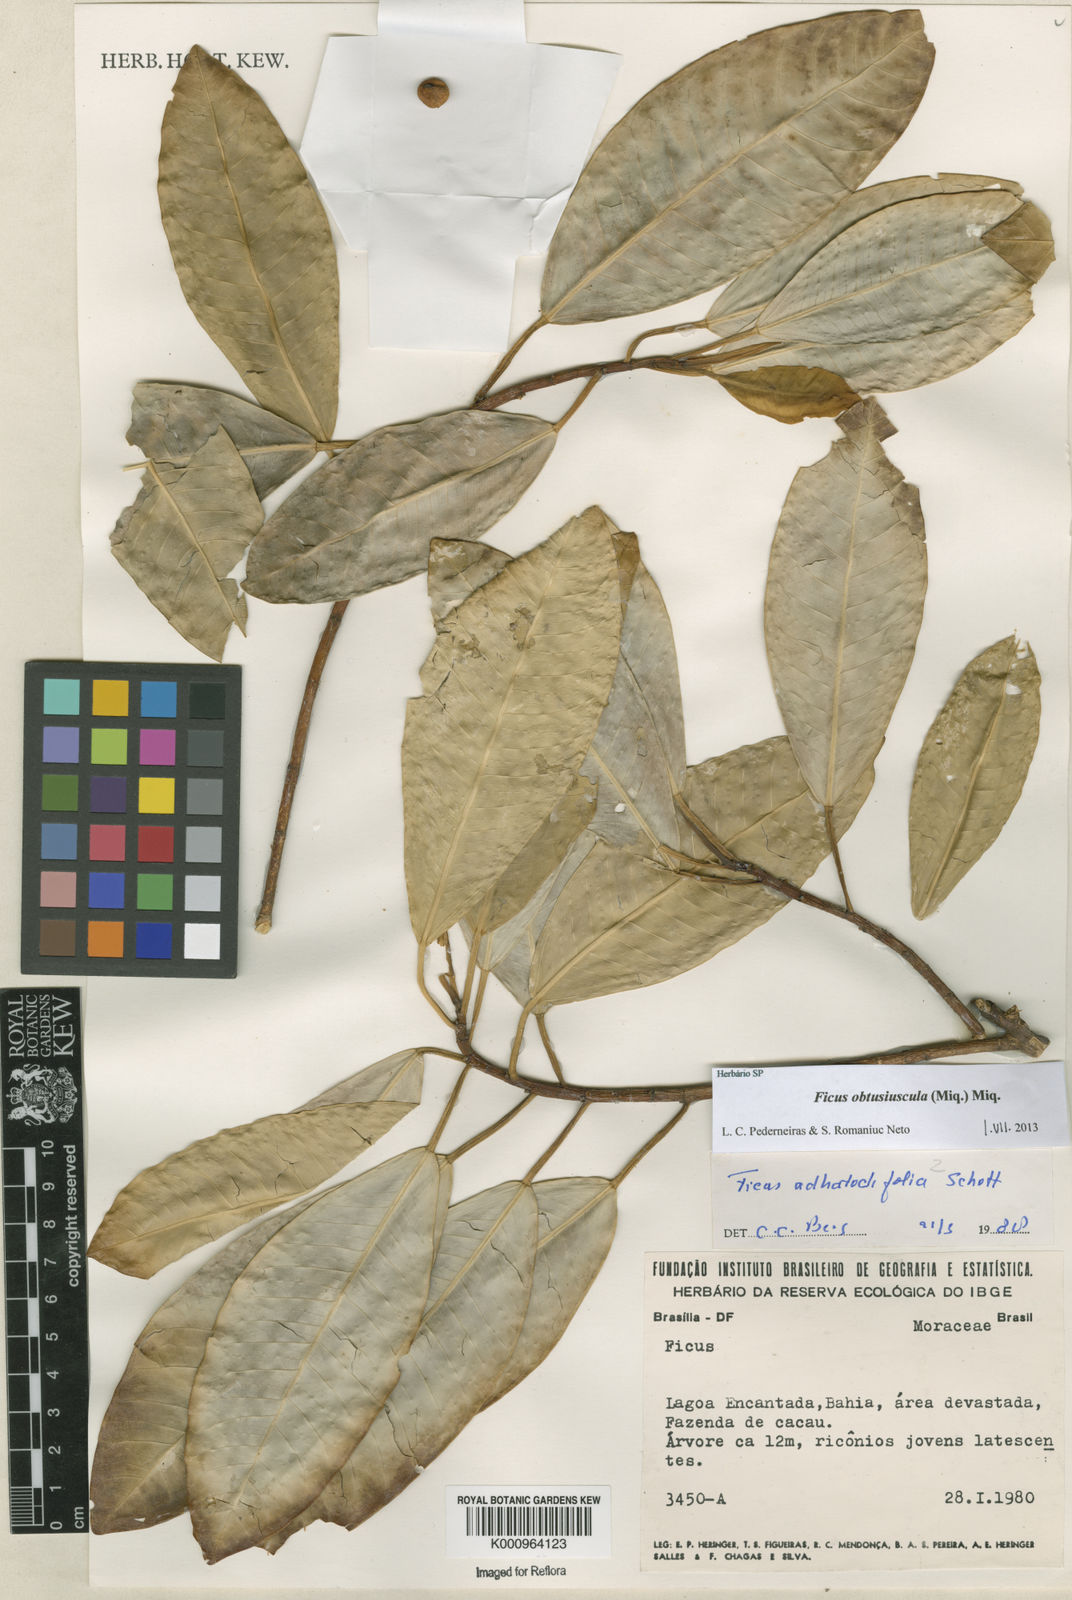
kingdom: Plantae
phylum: Tracheophyta
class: Magnoliopsida
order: Rosales
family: Moraceae
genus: Ficus
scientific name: Ficus obtusiuscula
